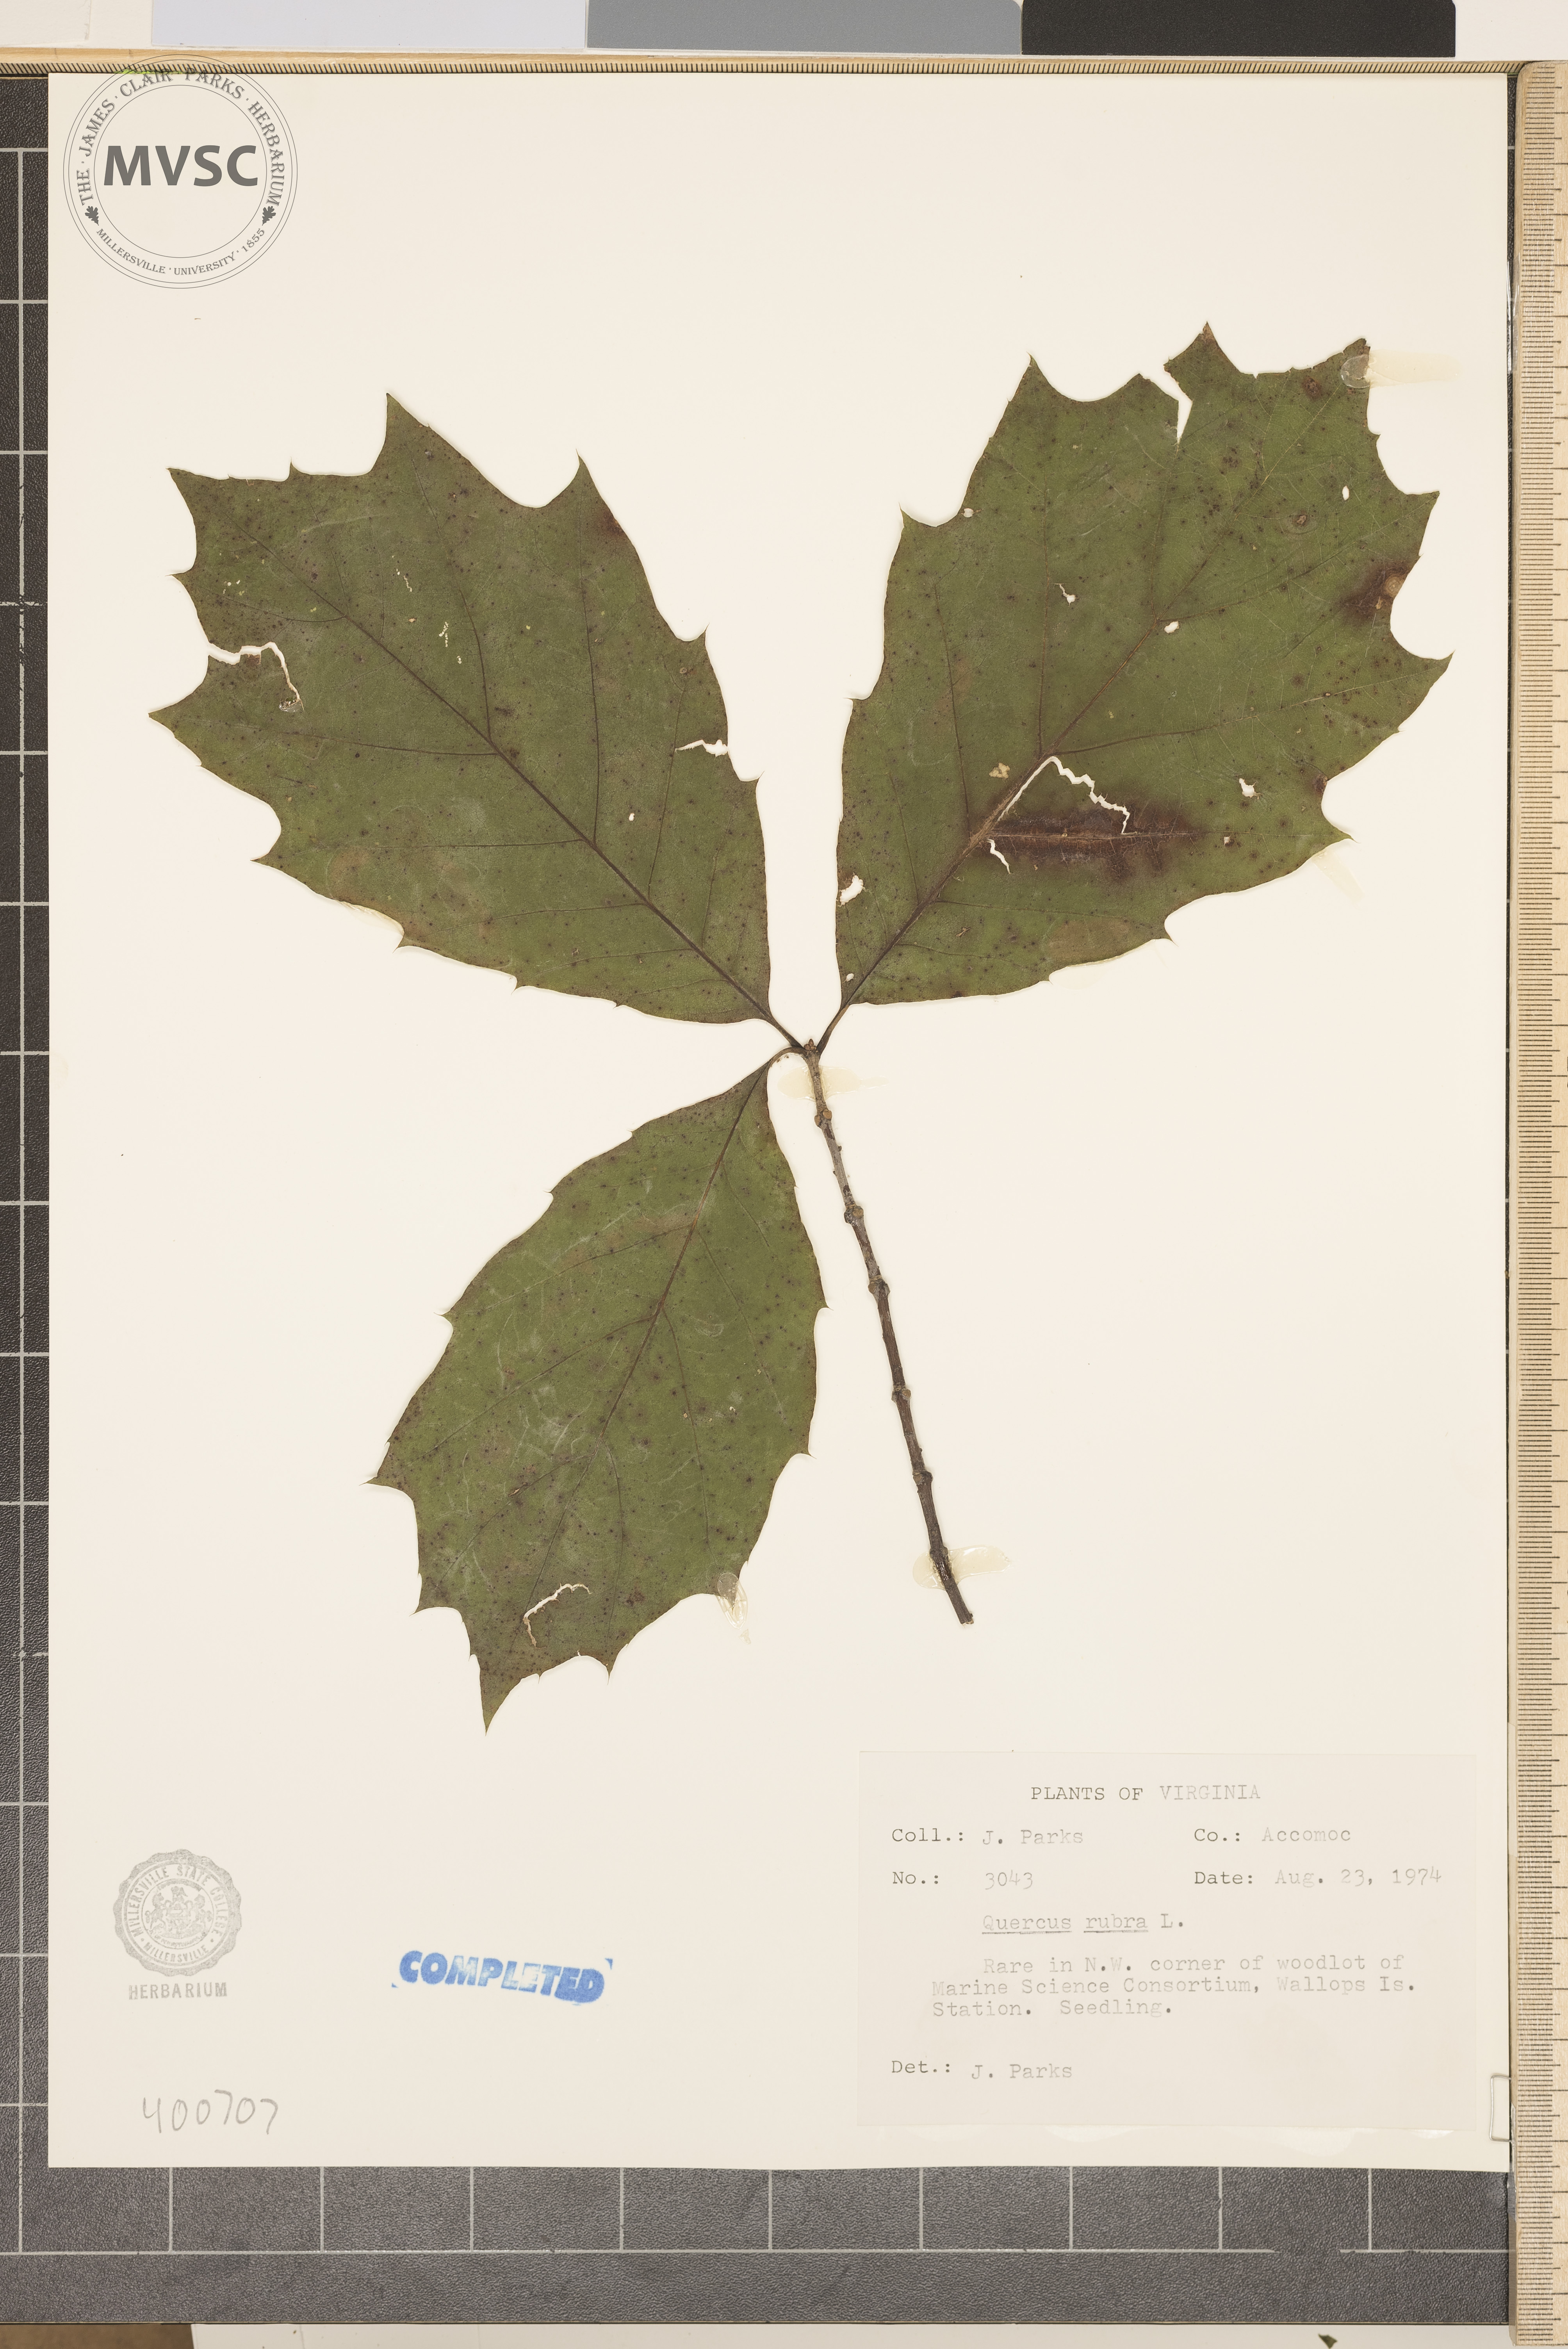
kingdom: Plantae
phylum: Tracheophyta
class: Magnoliopsida
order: Fagales
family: Fagaceae
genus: Quercus
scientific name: Quercus rubra
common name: red oak
